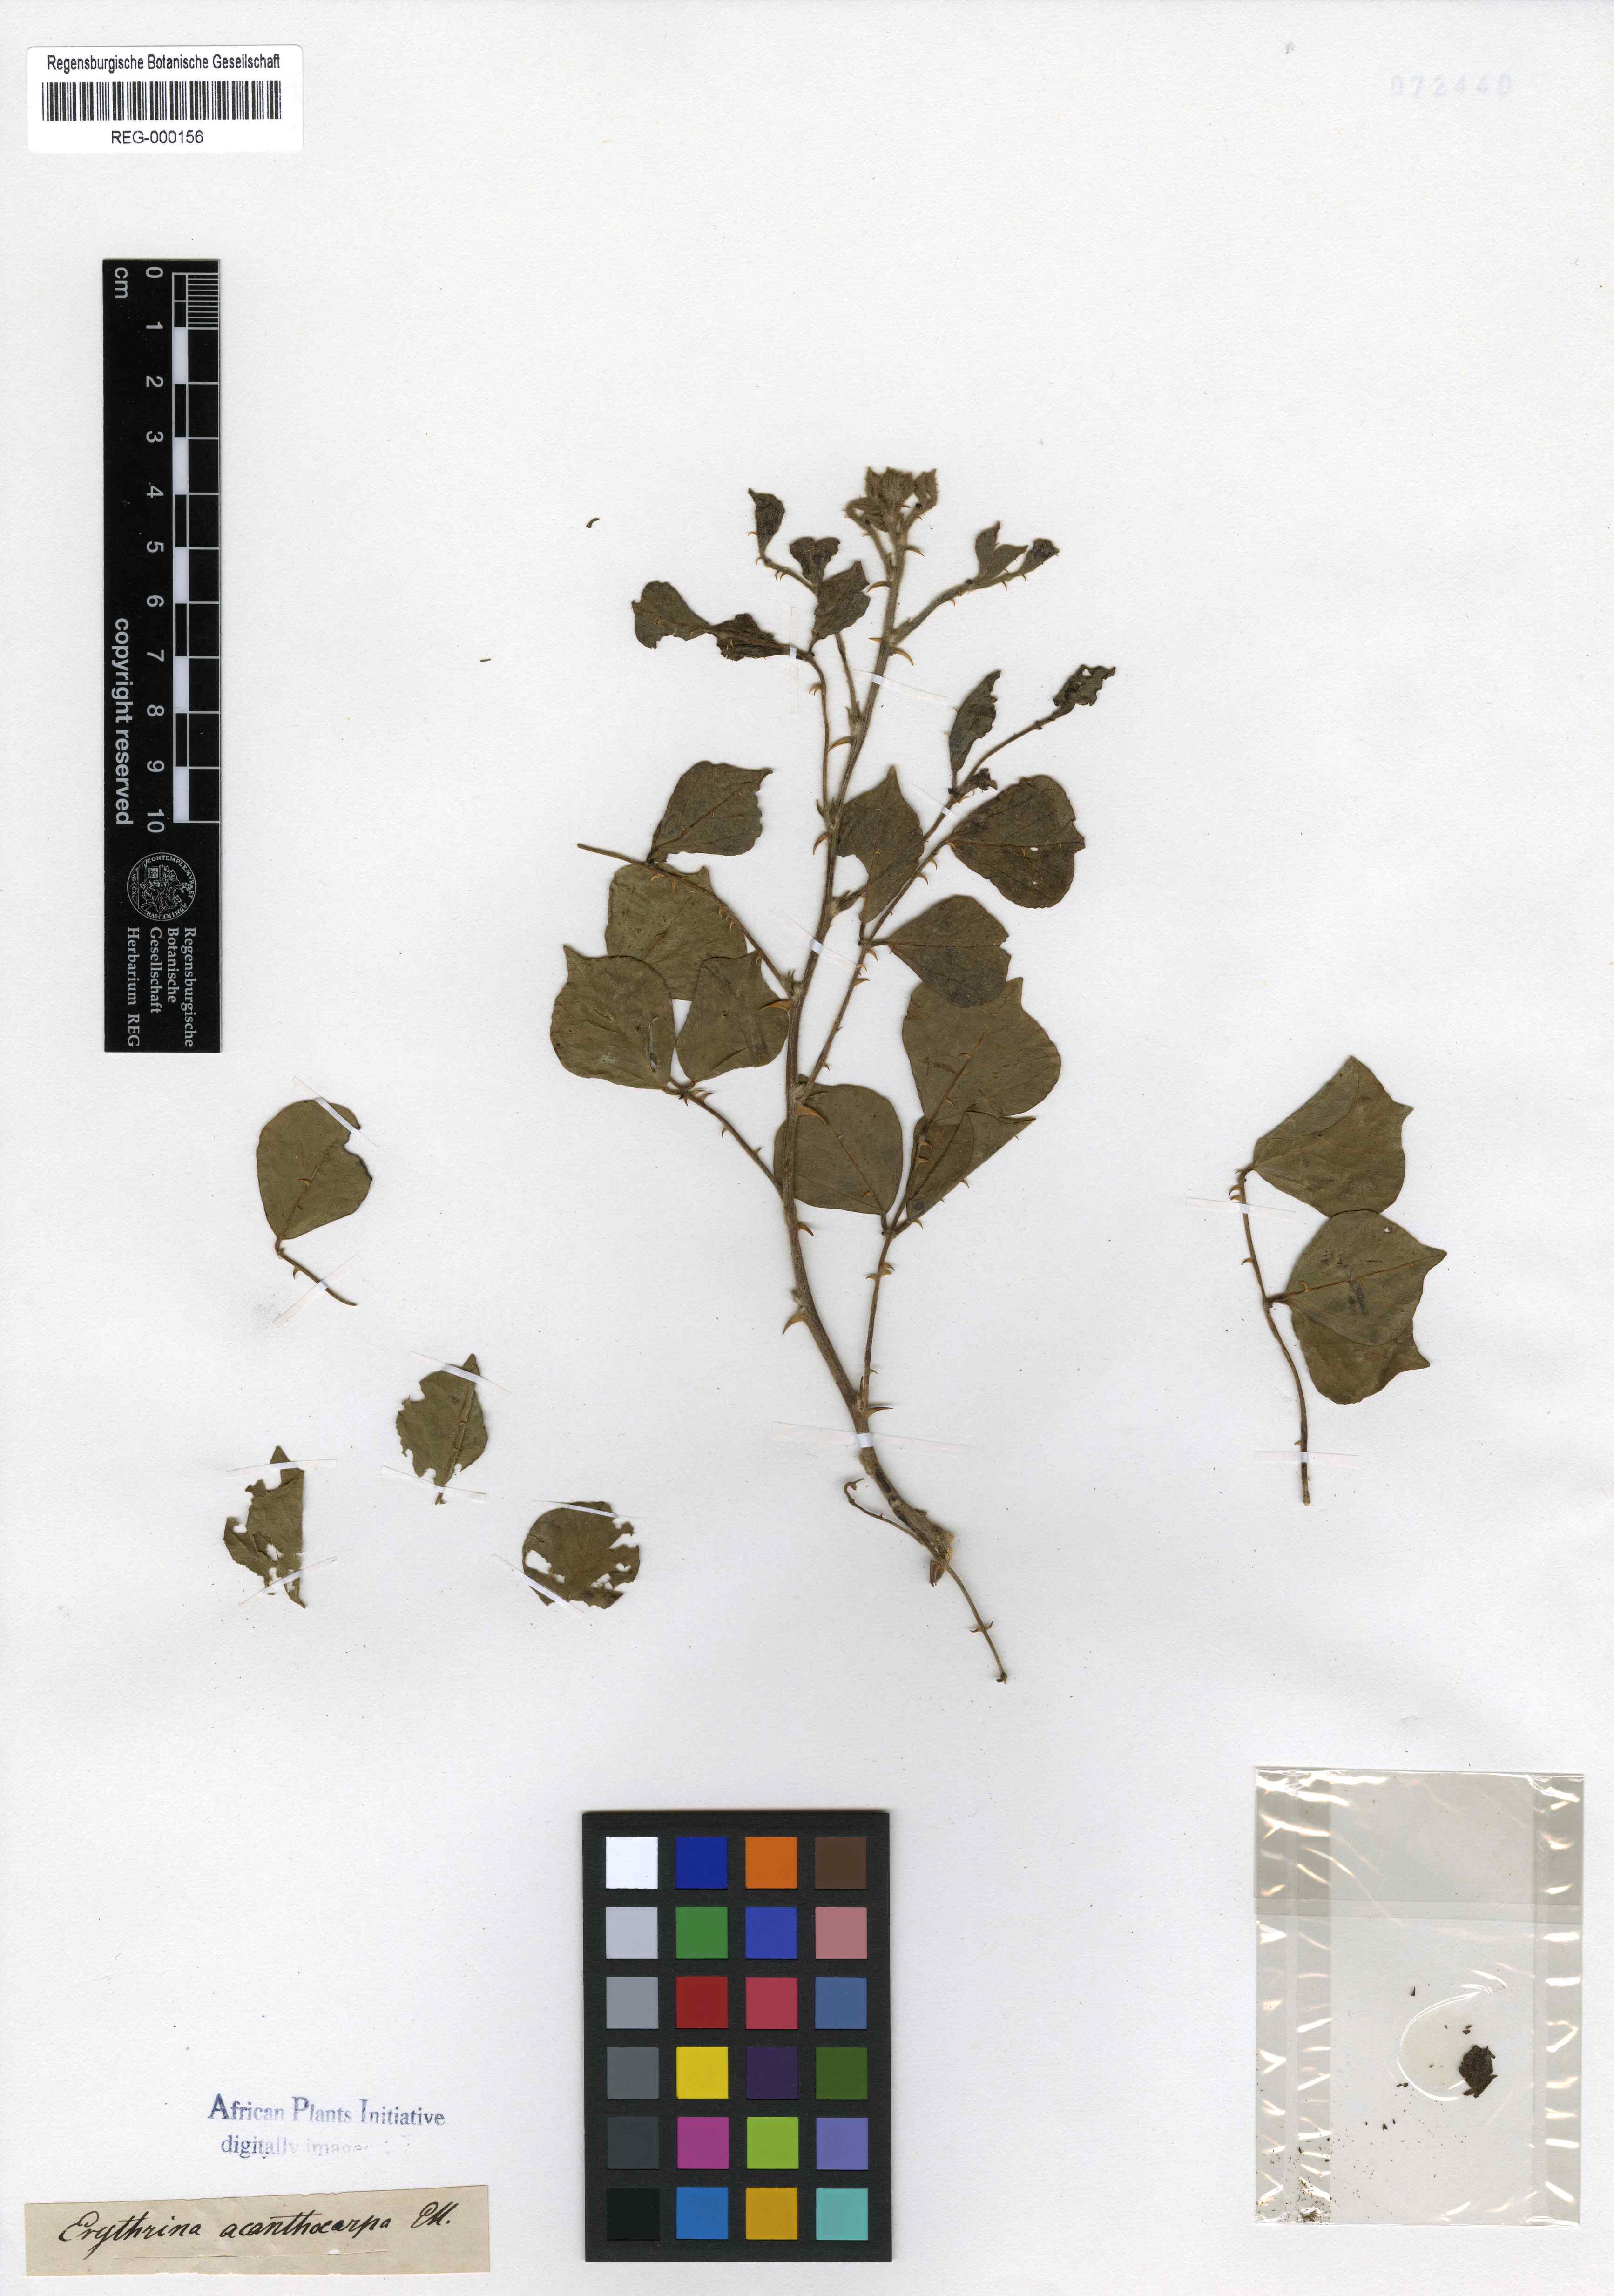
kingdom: Plantae
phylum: Tracheophyta
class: Magnoliopsida
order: Fabales
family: Fabaceae
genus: Erythrina
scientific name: Erythrina acanthocarpa
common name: Thorny coraltree
